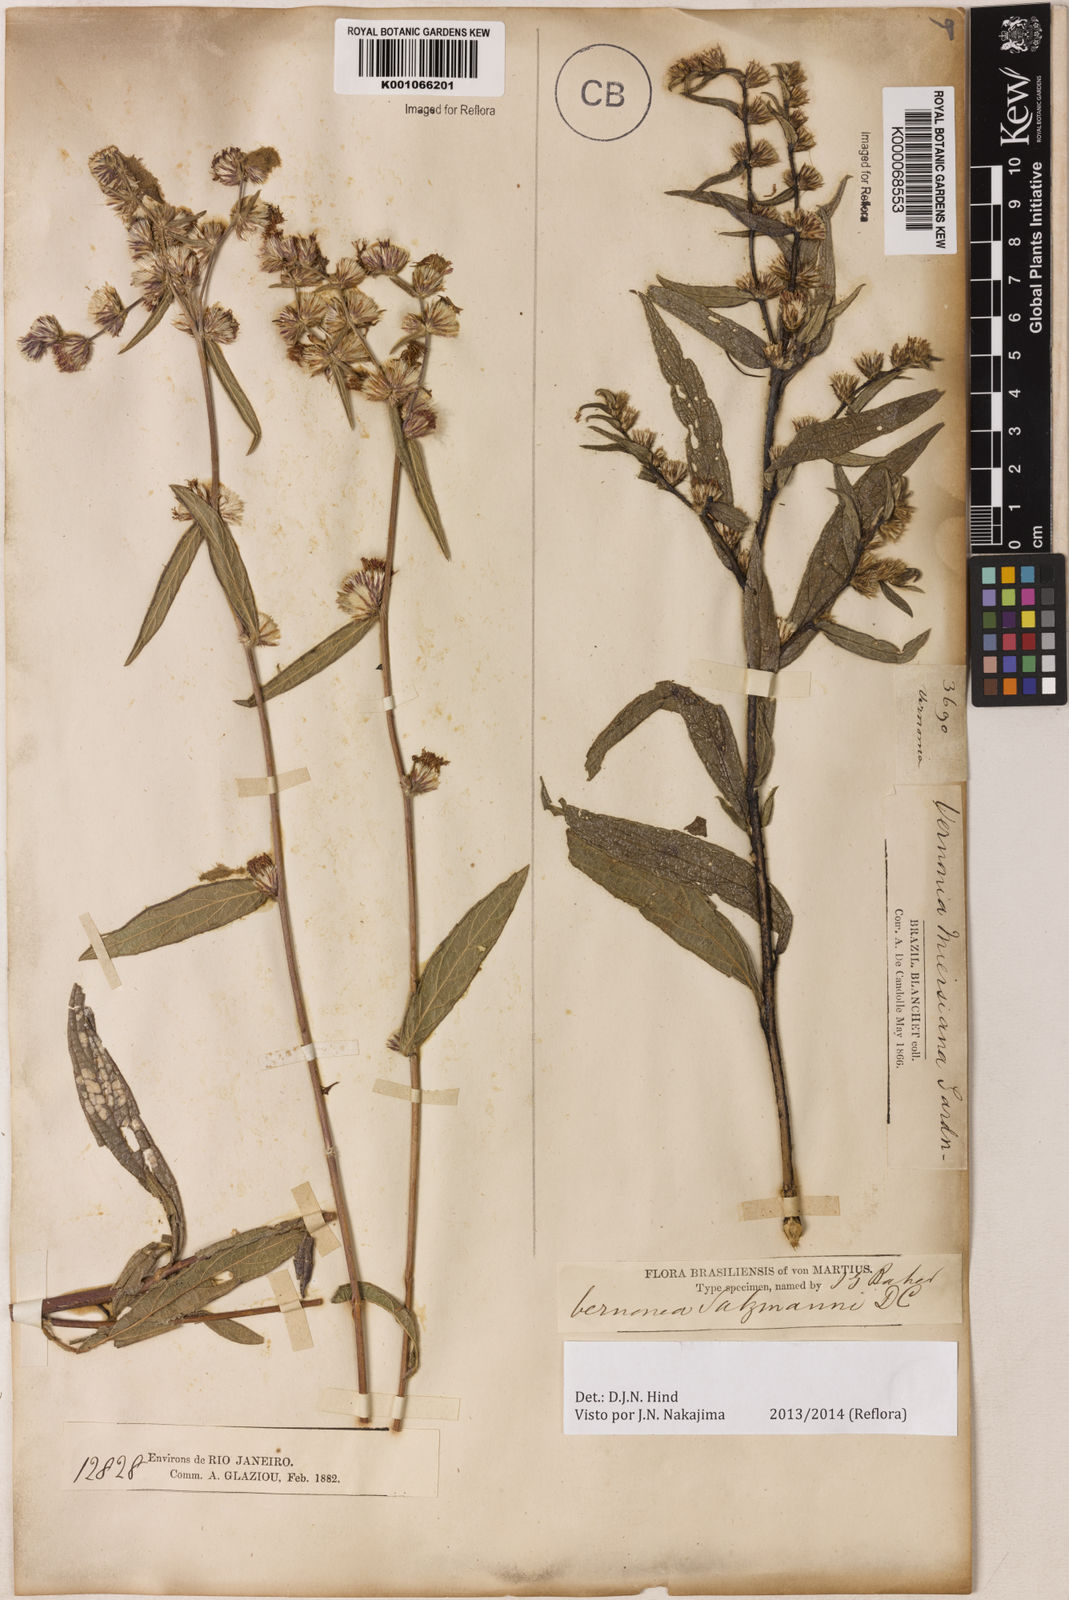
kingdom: Plantae
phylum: Tracheophyta
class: Magnoliopsida
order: Asterales
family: Asteraceae
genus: Lepidaploa
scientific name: Lepidaploa salzmannii
